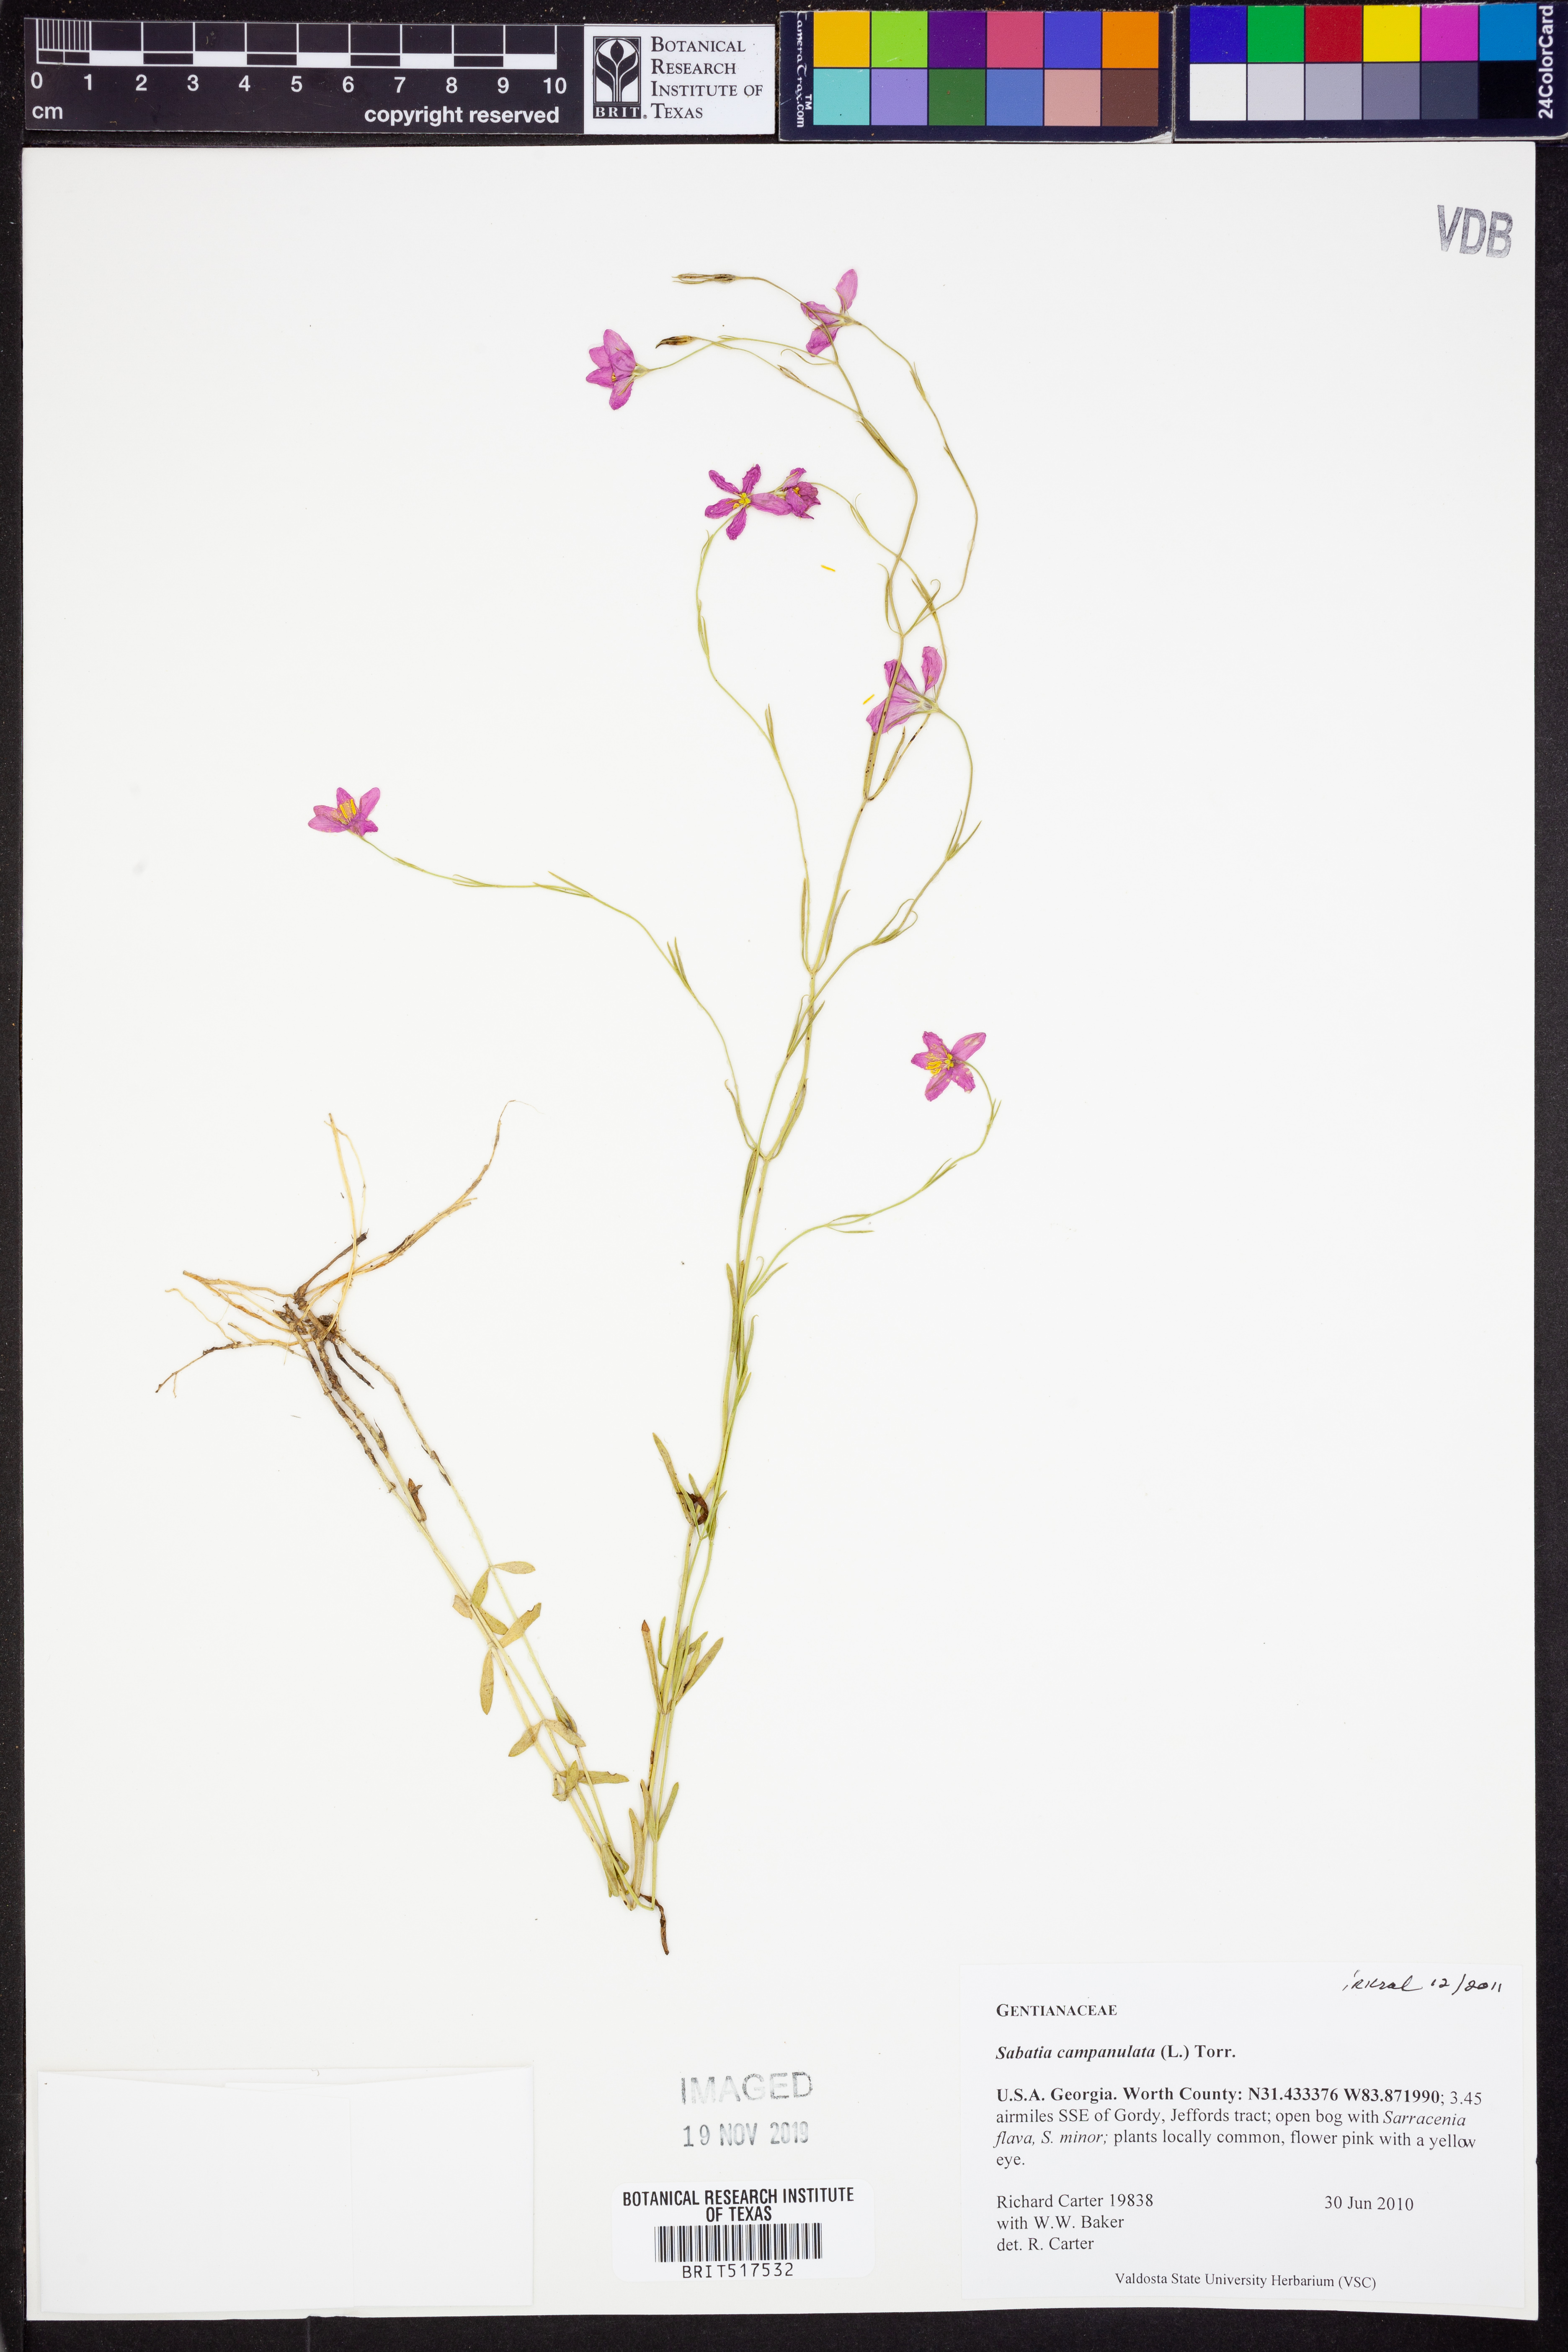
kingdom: Plantae
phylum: Tracheophyta
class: Magnoliopsida
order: Gentianales
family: Gentianaceae
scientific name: Gentianaceae
